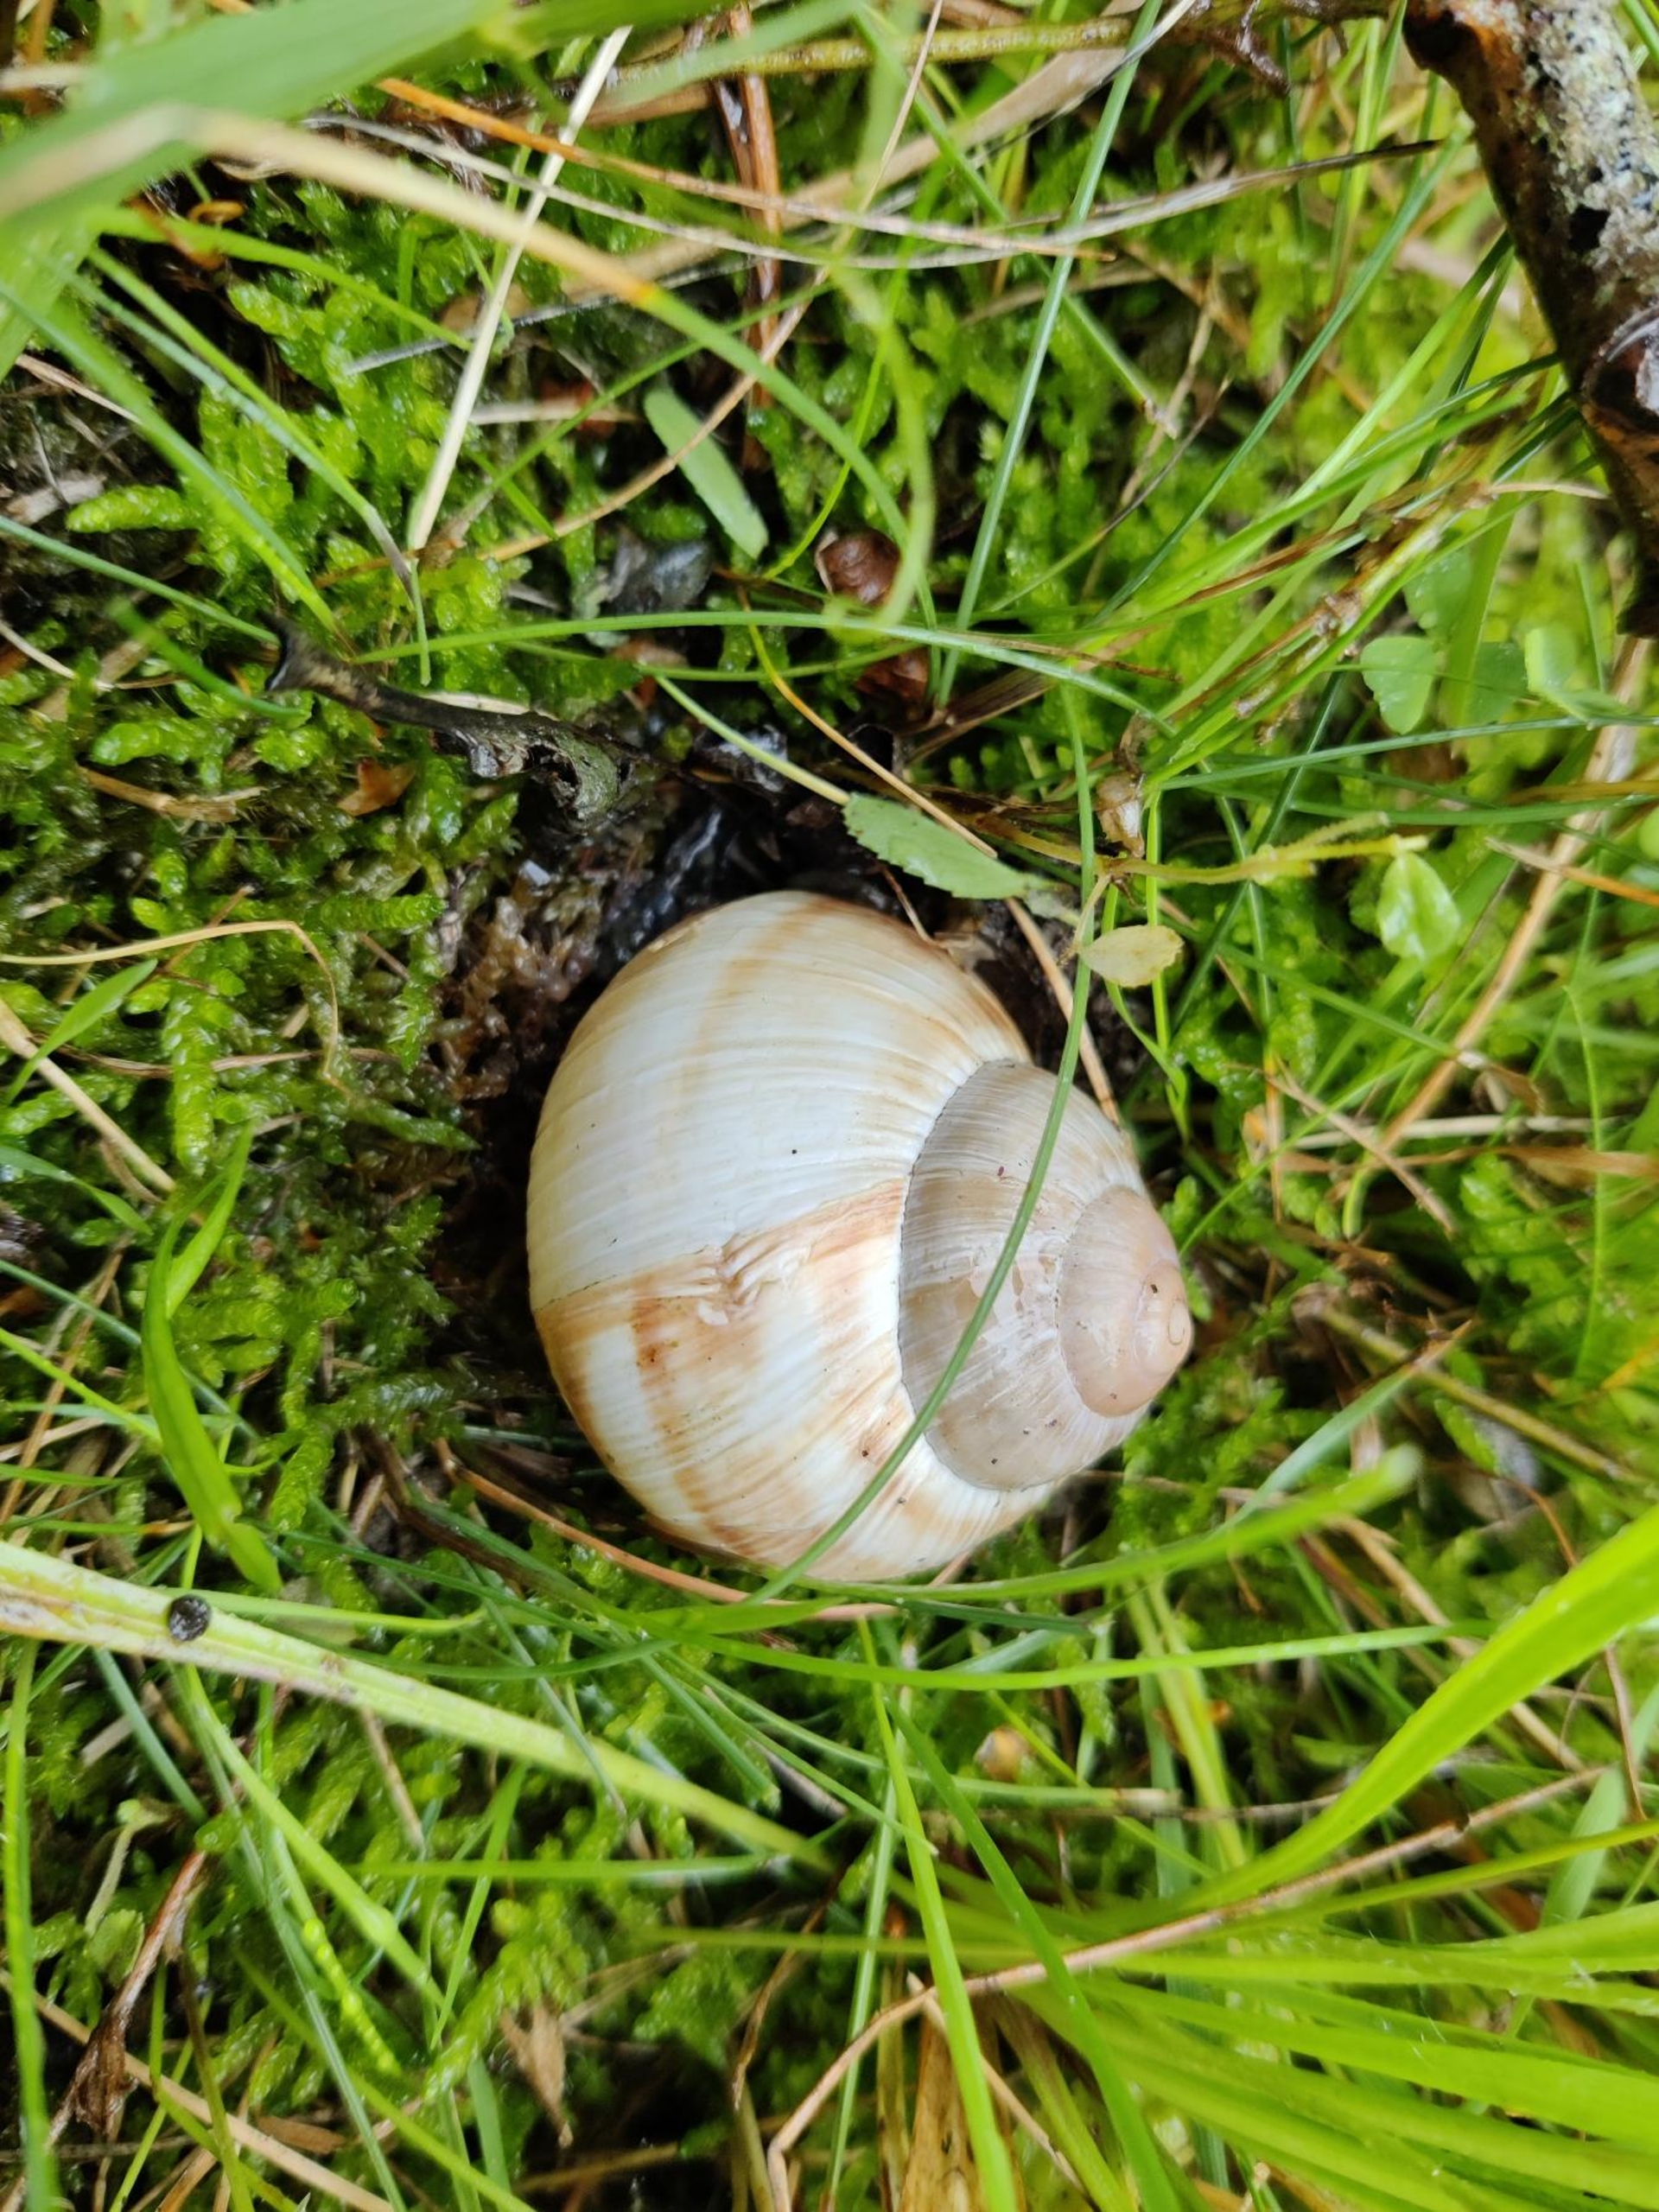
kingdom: Animalia
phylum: Mollusca
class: Gastropoda
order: Stylommatophora
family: Helicidae
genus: Helix
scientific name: Helix pomatia
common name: Vinbjergsnegl
